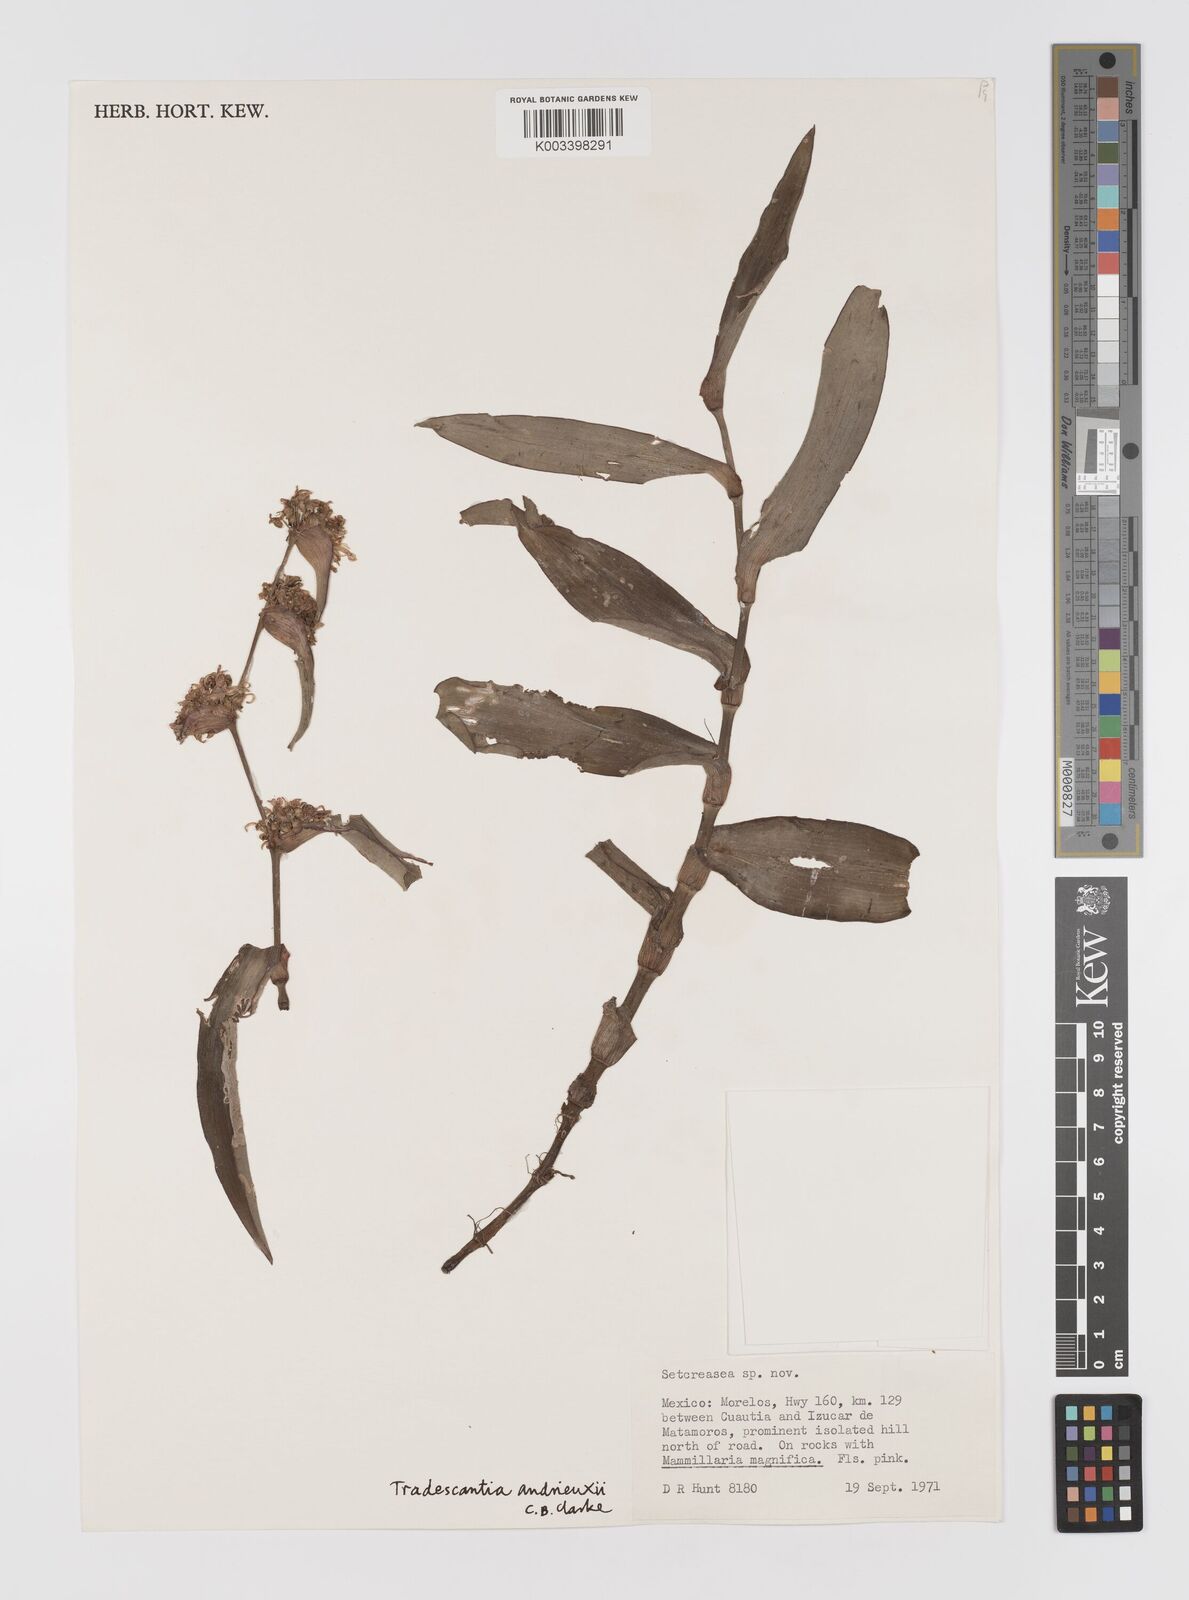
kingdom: Plantae
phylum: Tracheophyta
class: Liliopsida
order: Commelinales
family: Commelinaceae
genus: Tradescantia
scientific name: Tradescantia andrieuxii
